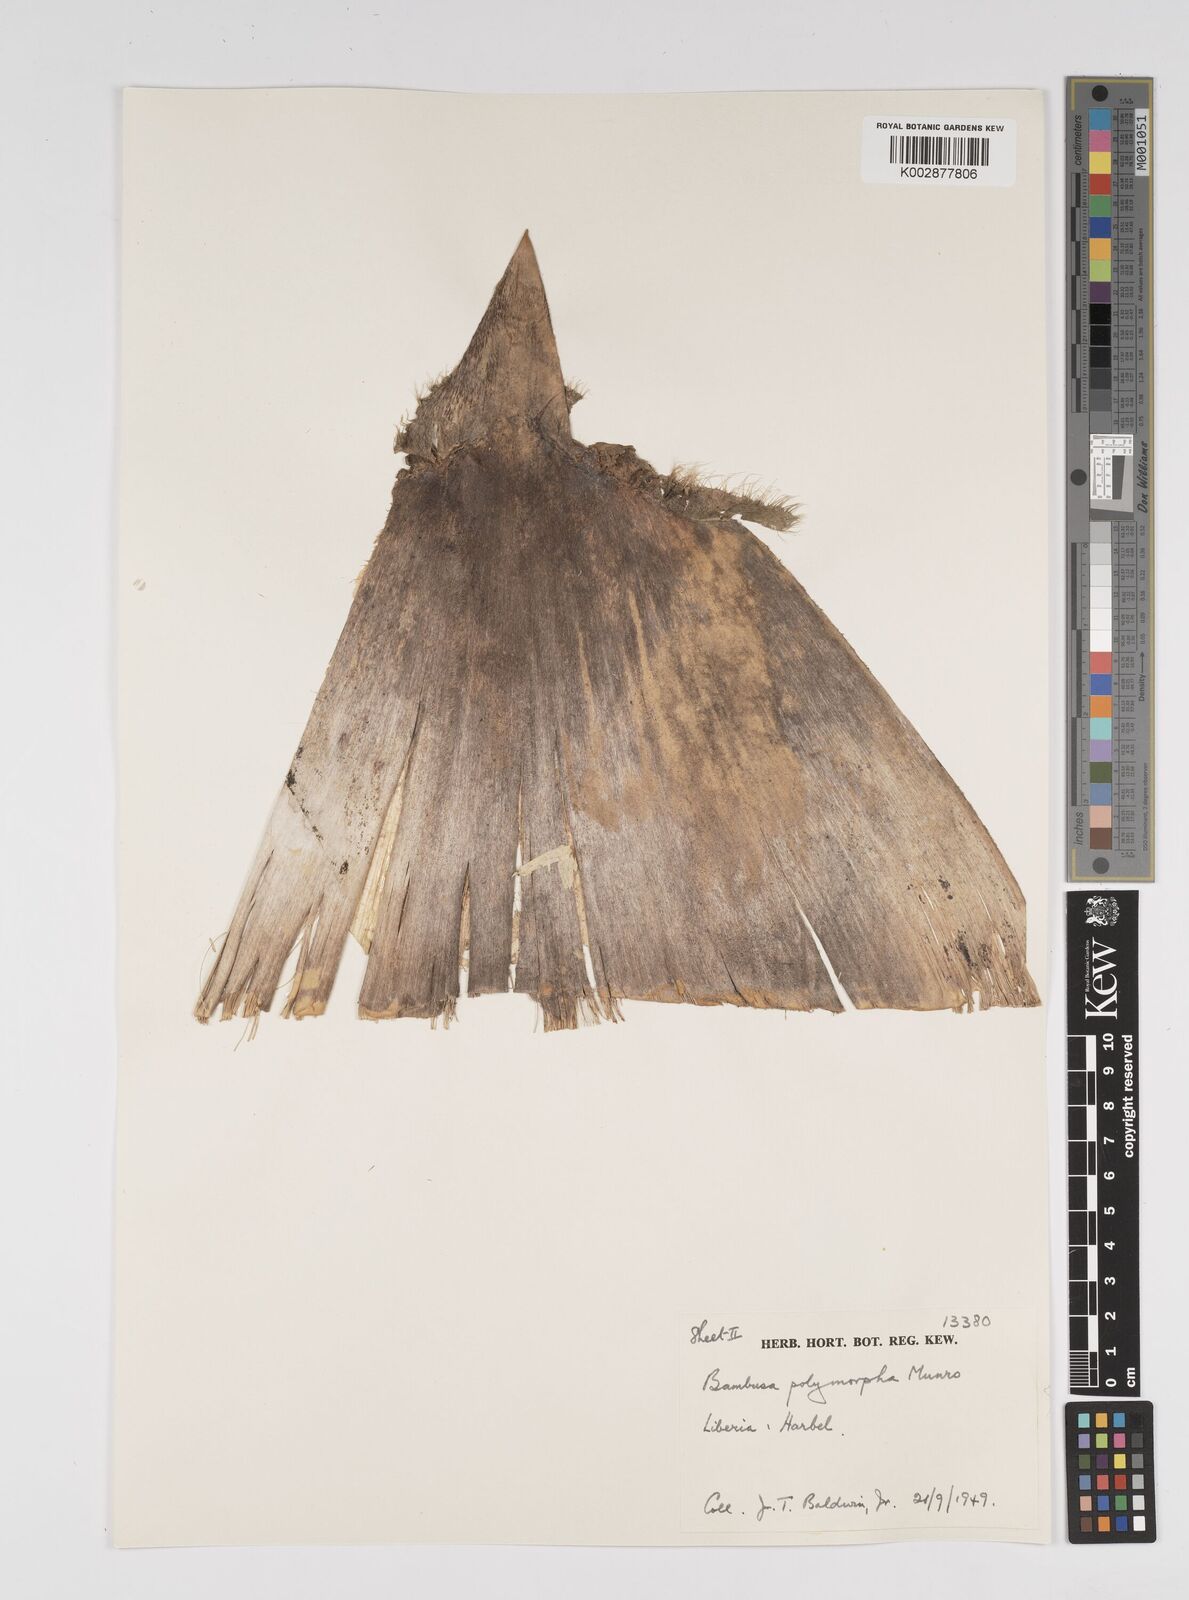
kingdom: Plantae
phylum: Tracheophyta
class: Liliopsida
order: Poales
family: Poaceae
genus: Bambusa
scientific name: Bambusa polymorpha
